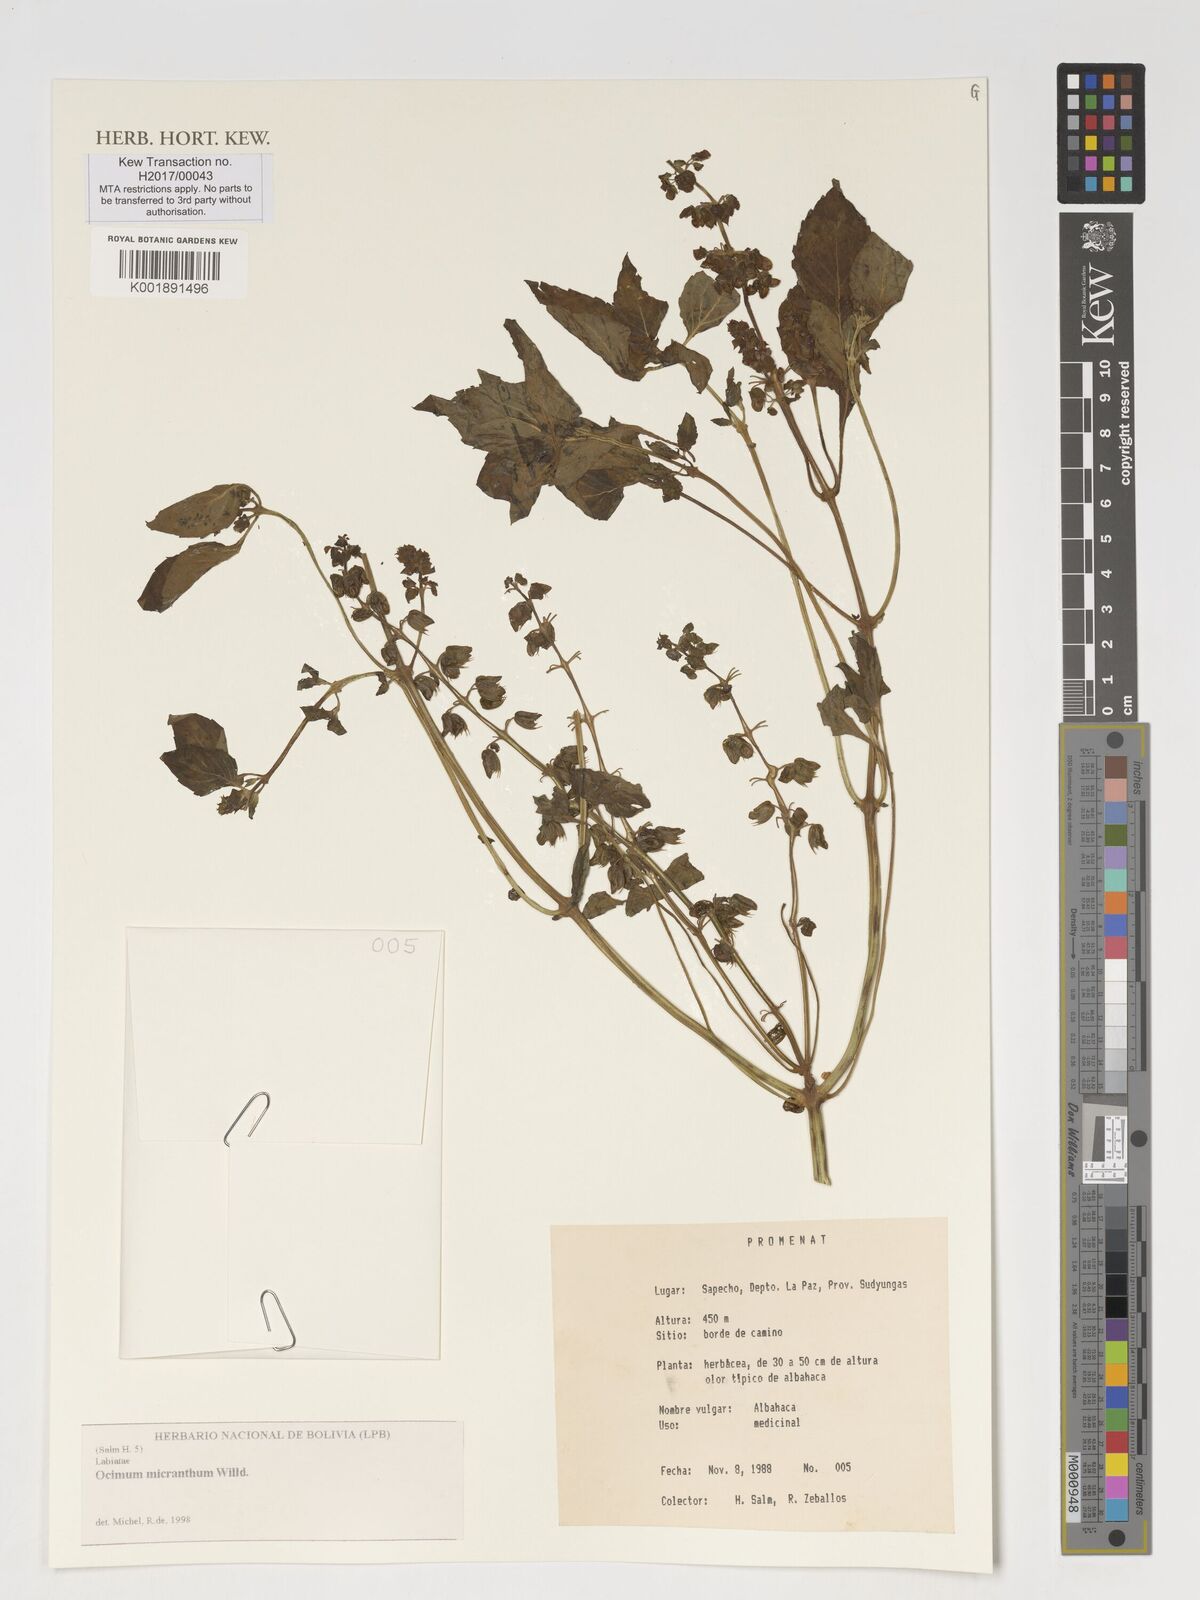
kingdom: Plantae
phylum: Tracheophyta
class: Magnoliopsida
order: Lamiales
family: Lamiaceae
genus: Ocimum
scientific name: Ocimum campechianum
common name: Mosquito basil
